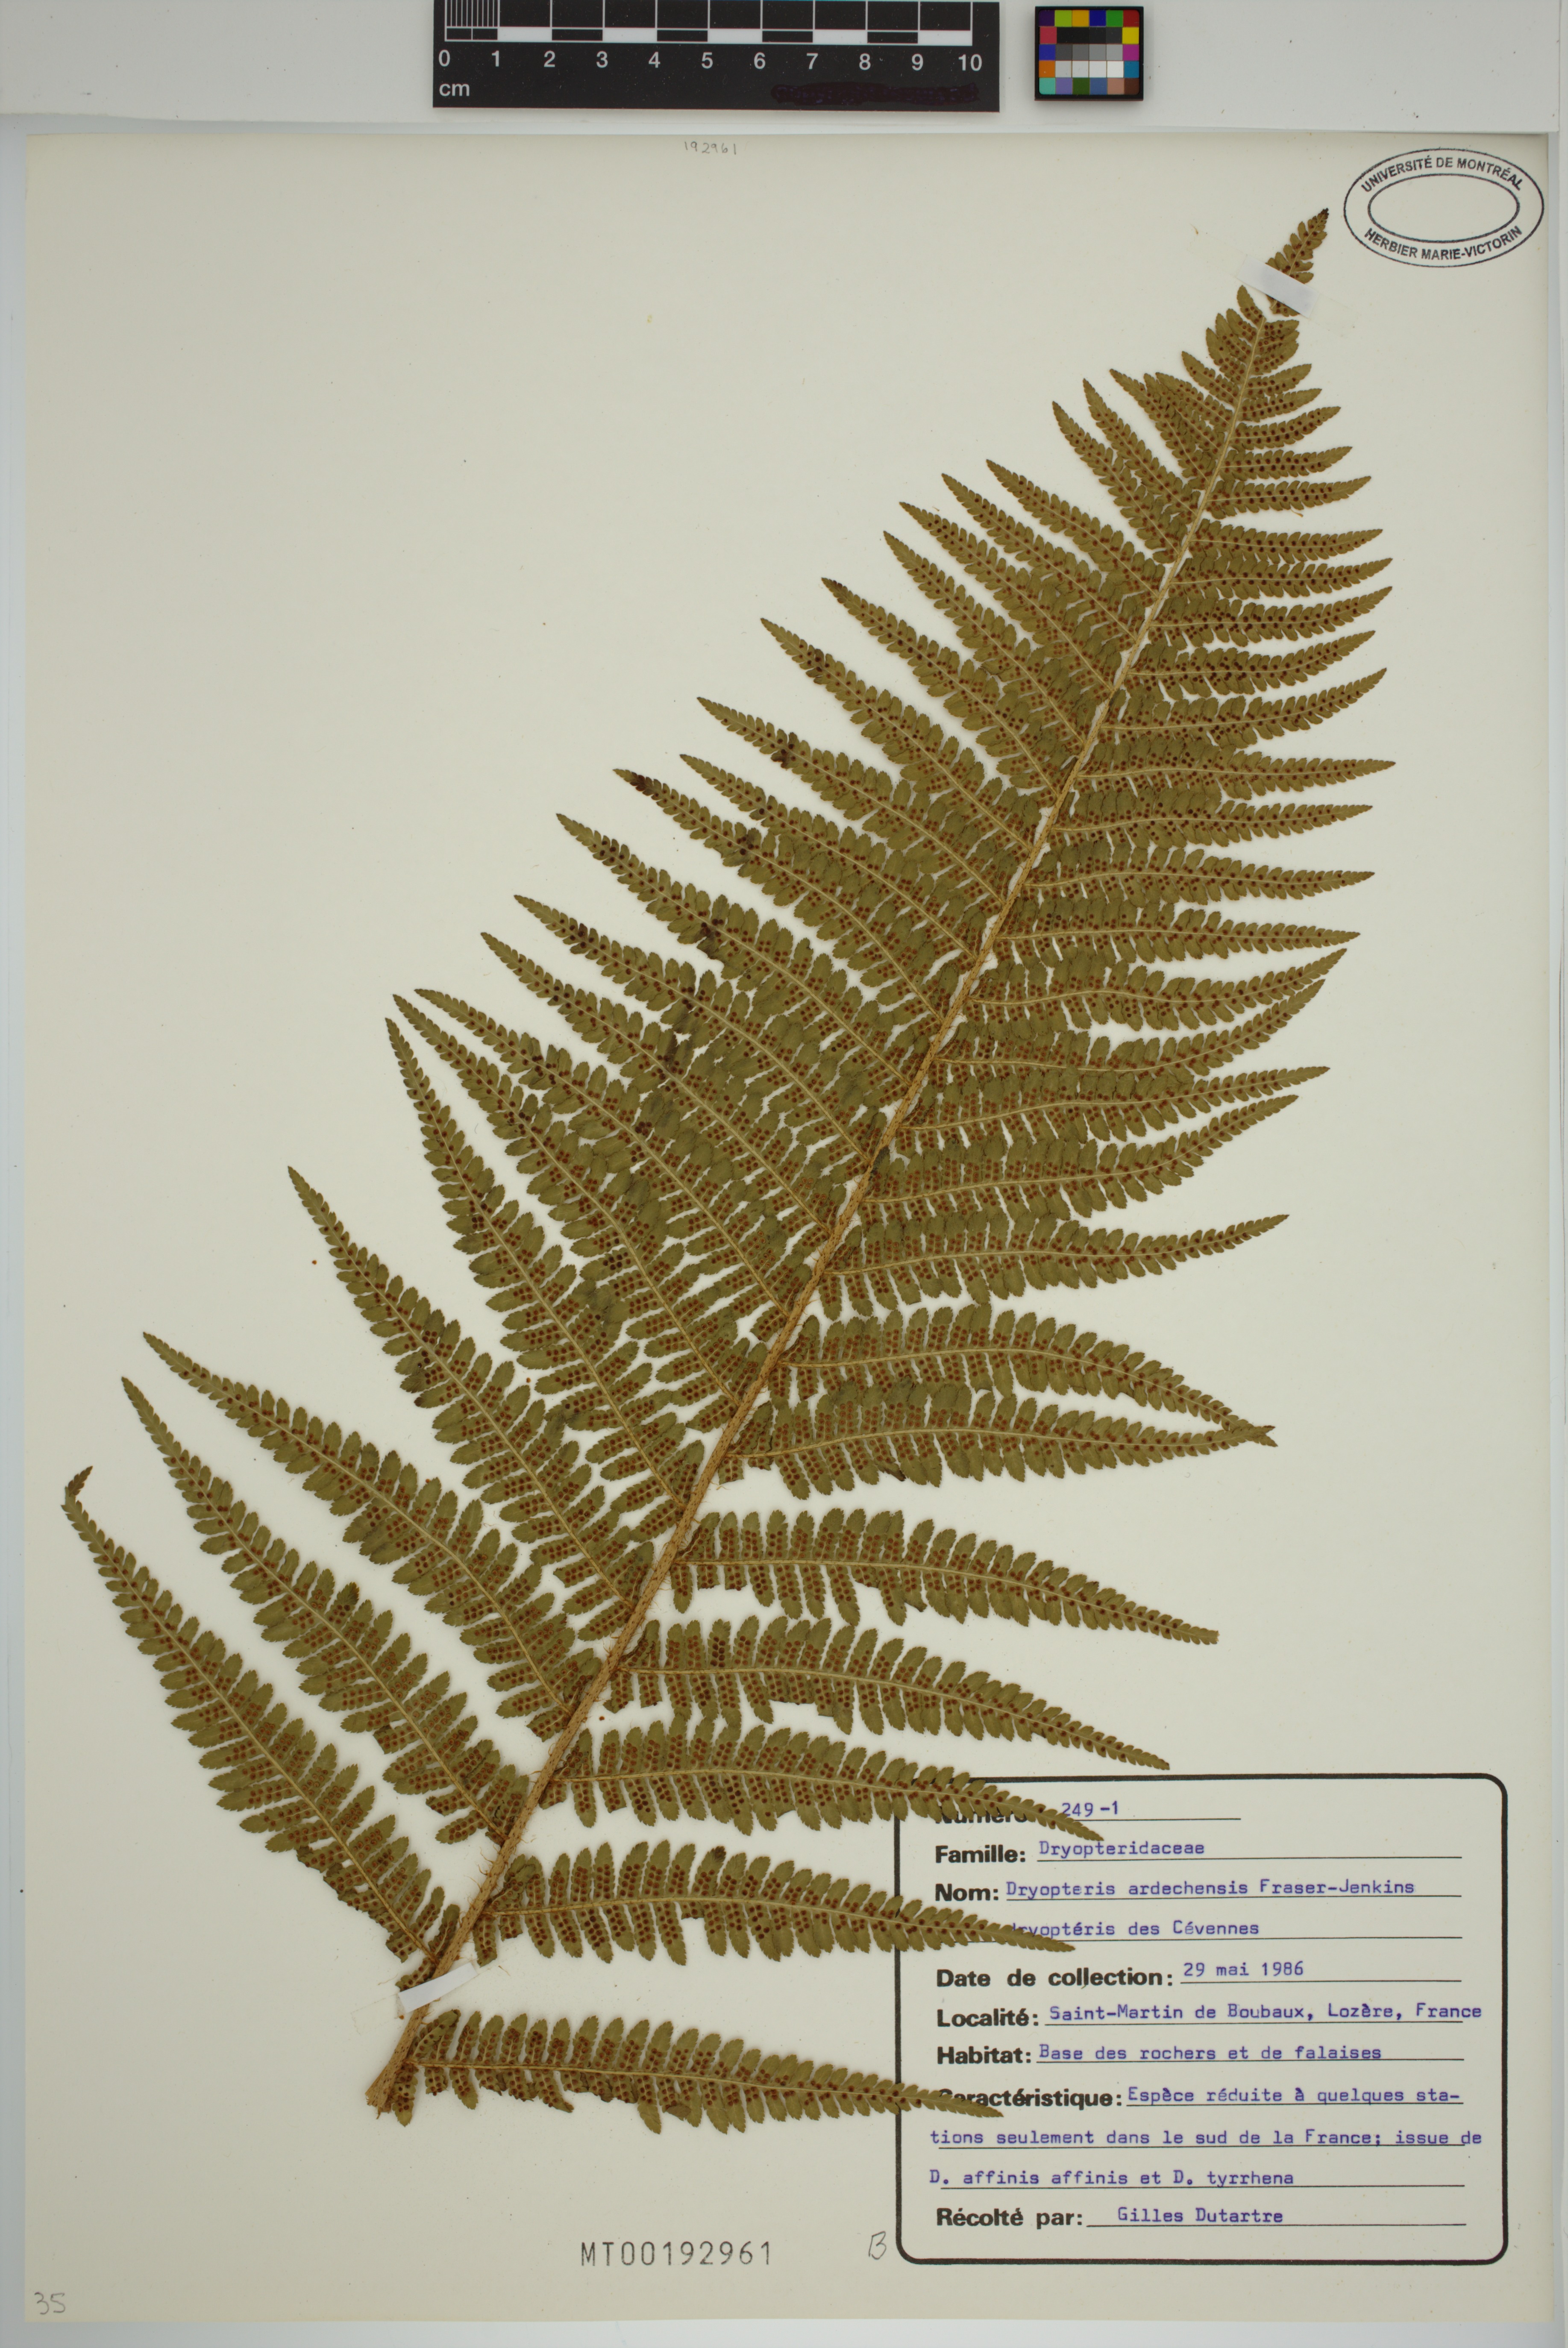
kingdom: Plantae
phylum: Tracheophyta
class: Polypodiopsida
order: Polypodiales
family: Dryopteridaceae
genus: Dryopteris
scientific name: Dryopteris ardechensis
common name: Cévennes male-fern
